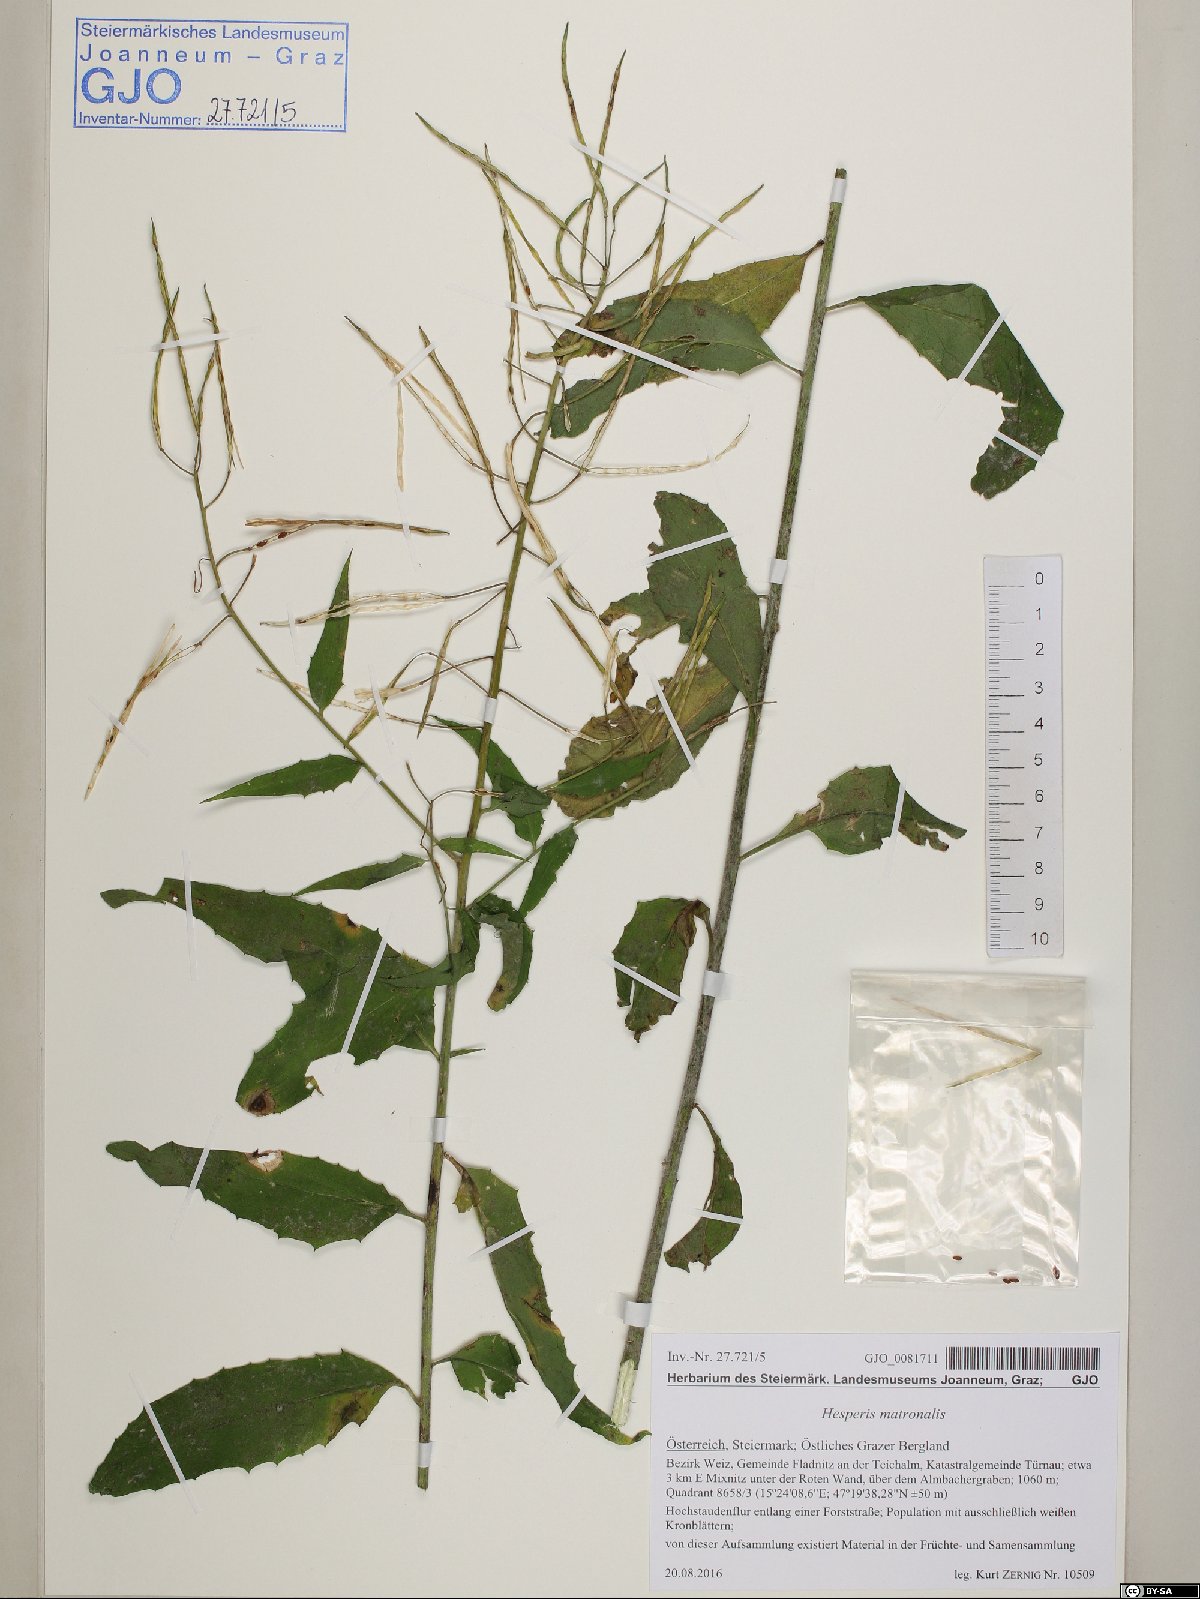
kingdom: Plantae
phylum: Tracheophyta
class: Magnoliopsida
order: Brassicales
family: Brassicaceae
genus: Hesperis
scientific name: Hesperis matronalis
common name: Dame's-violet
